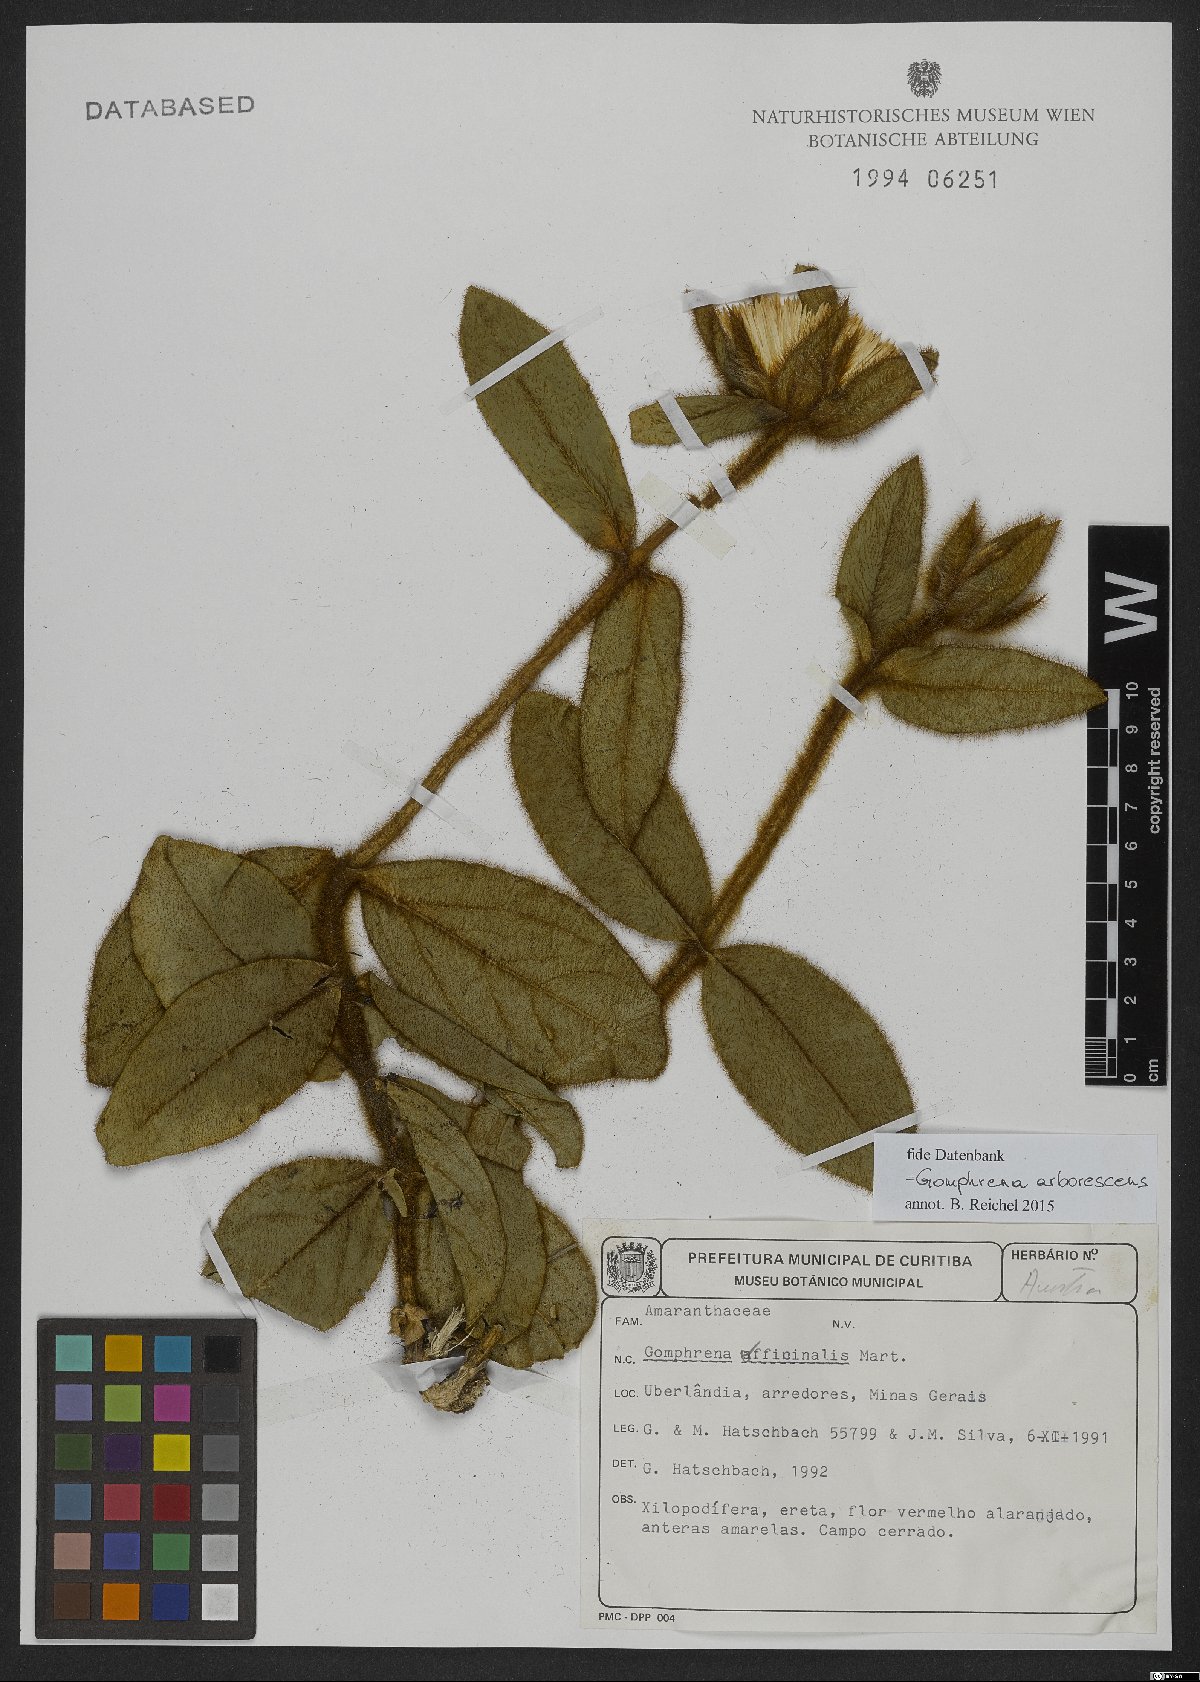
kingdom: Plantae
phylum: Tracheophyta
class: Magnoliopsida
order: Caryophyllales
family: Amaranthaceae
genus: Gomphrena
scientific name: Gomphrena arborescens
